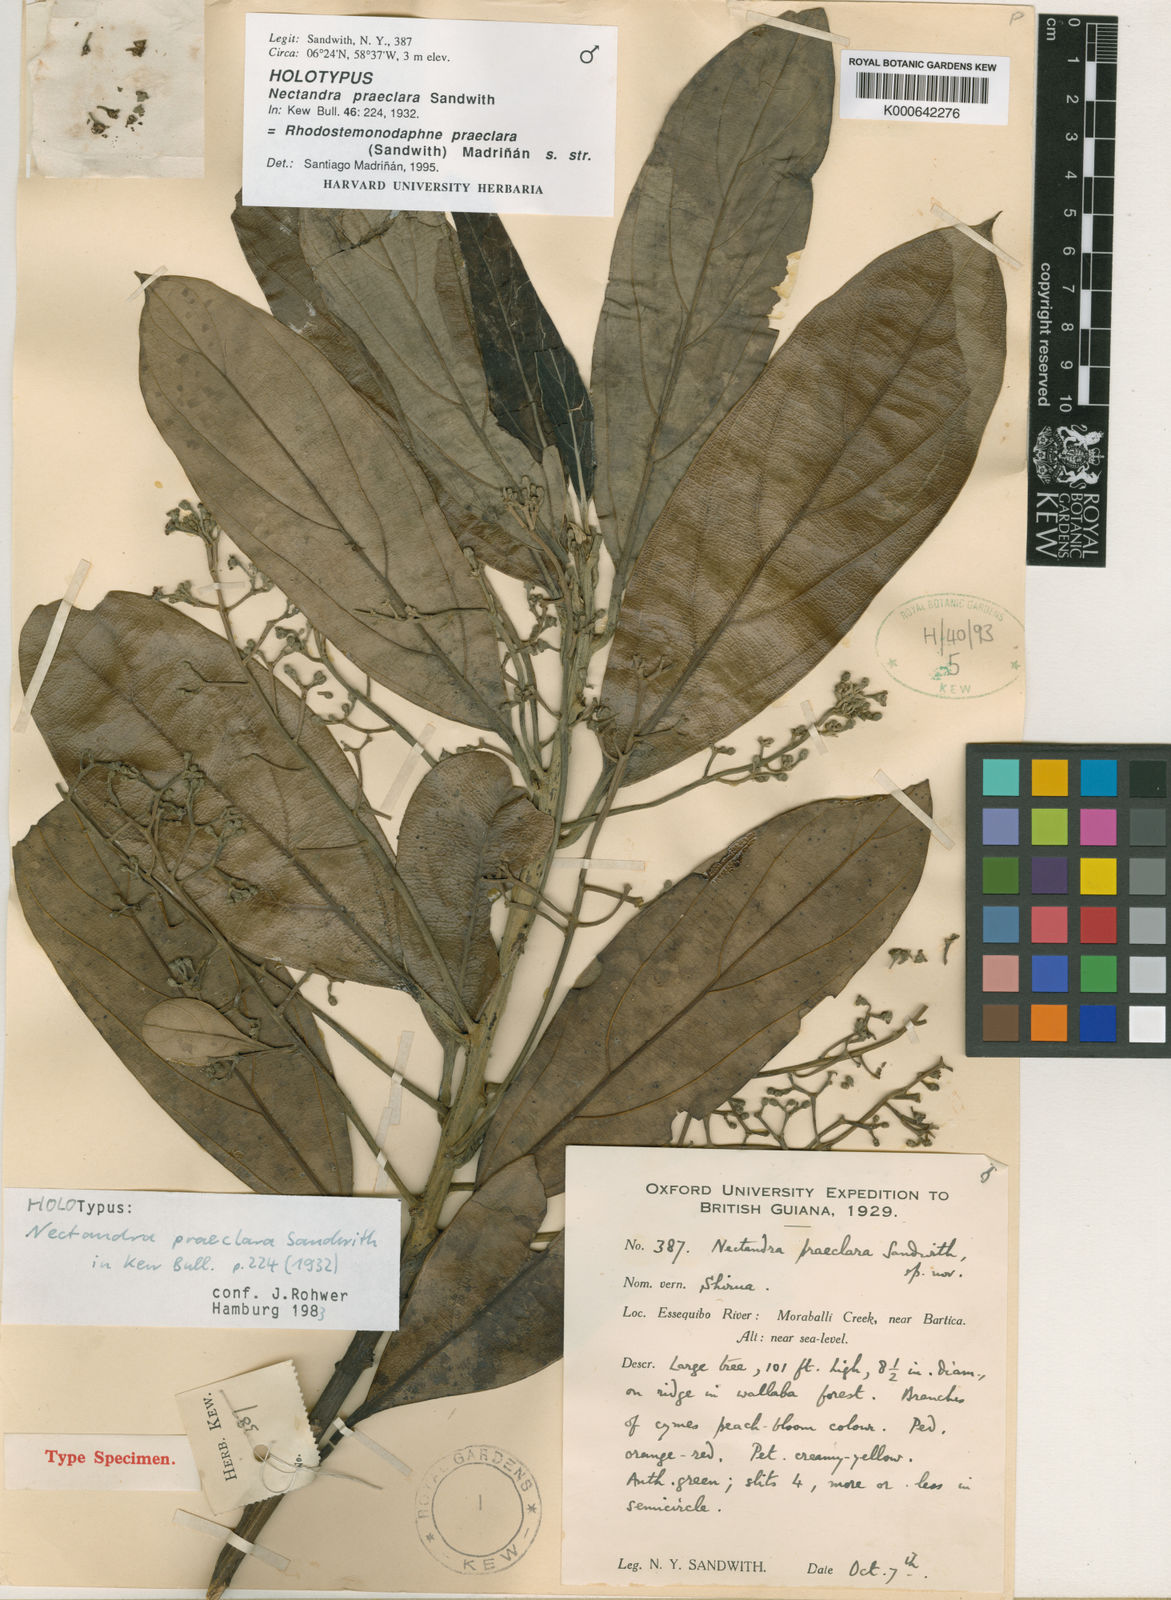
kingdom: Plantae
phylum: Tracheophyta
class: Magnoliopsida
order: Laurales
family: Lauraceae
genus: Rhodostemonodaphne
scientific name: Rhodostemonodaphne
